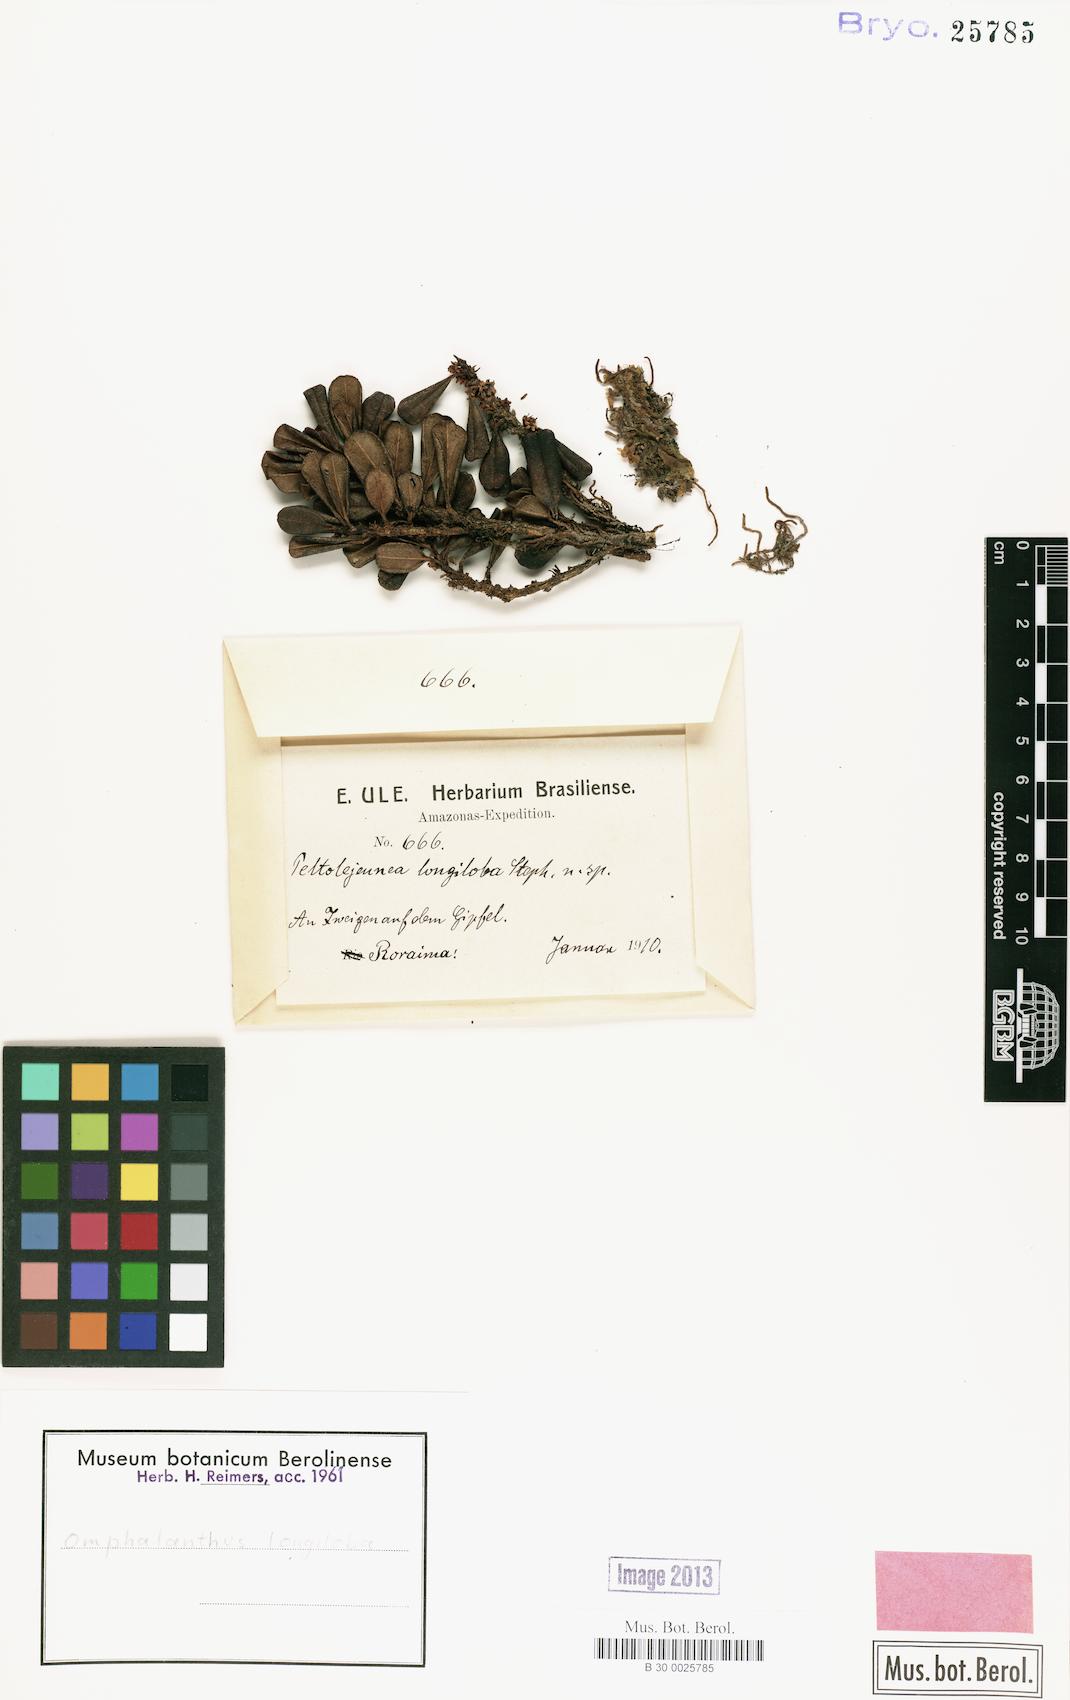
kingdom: Plantae
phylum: Marchantiophyta
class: Jungermanniopsida
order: Porellales
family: Lejeuneaceae
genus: Cheilolejeunea
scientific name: Cheilolejeunea
